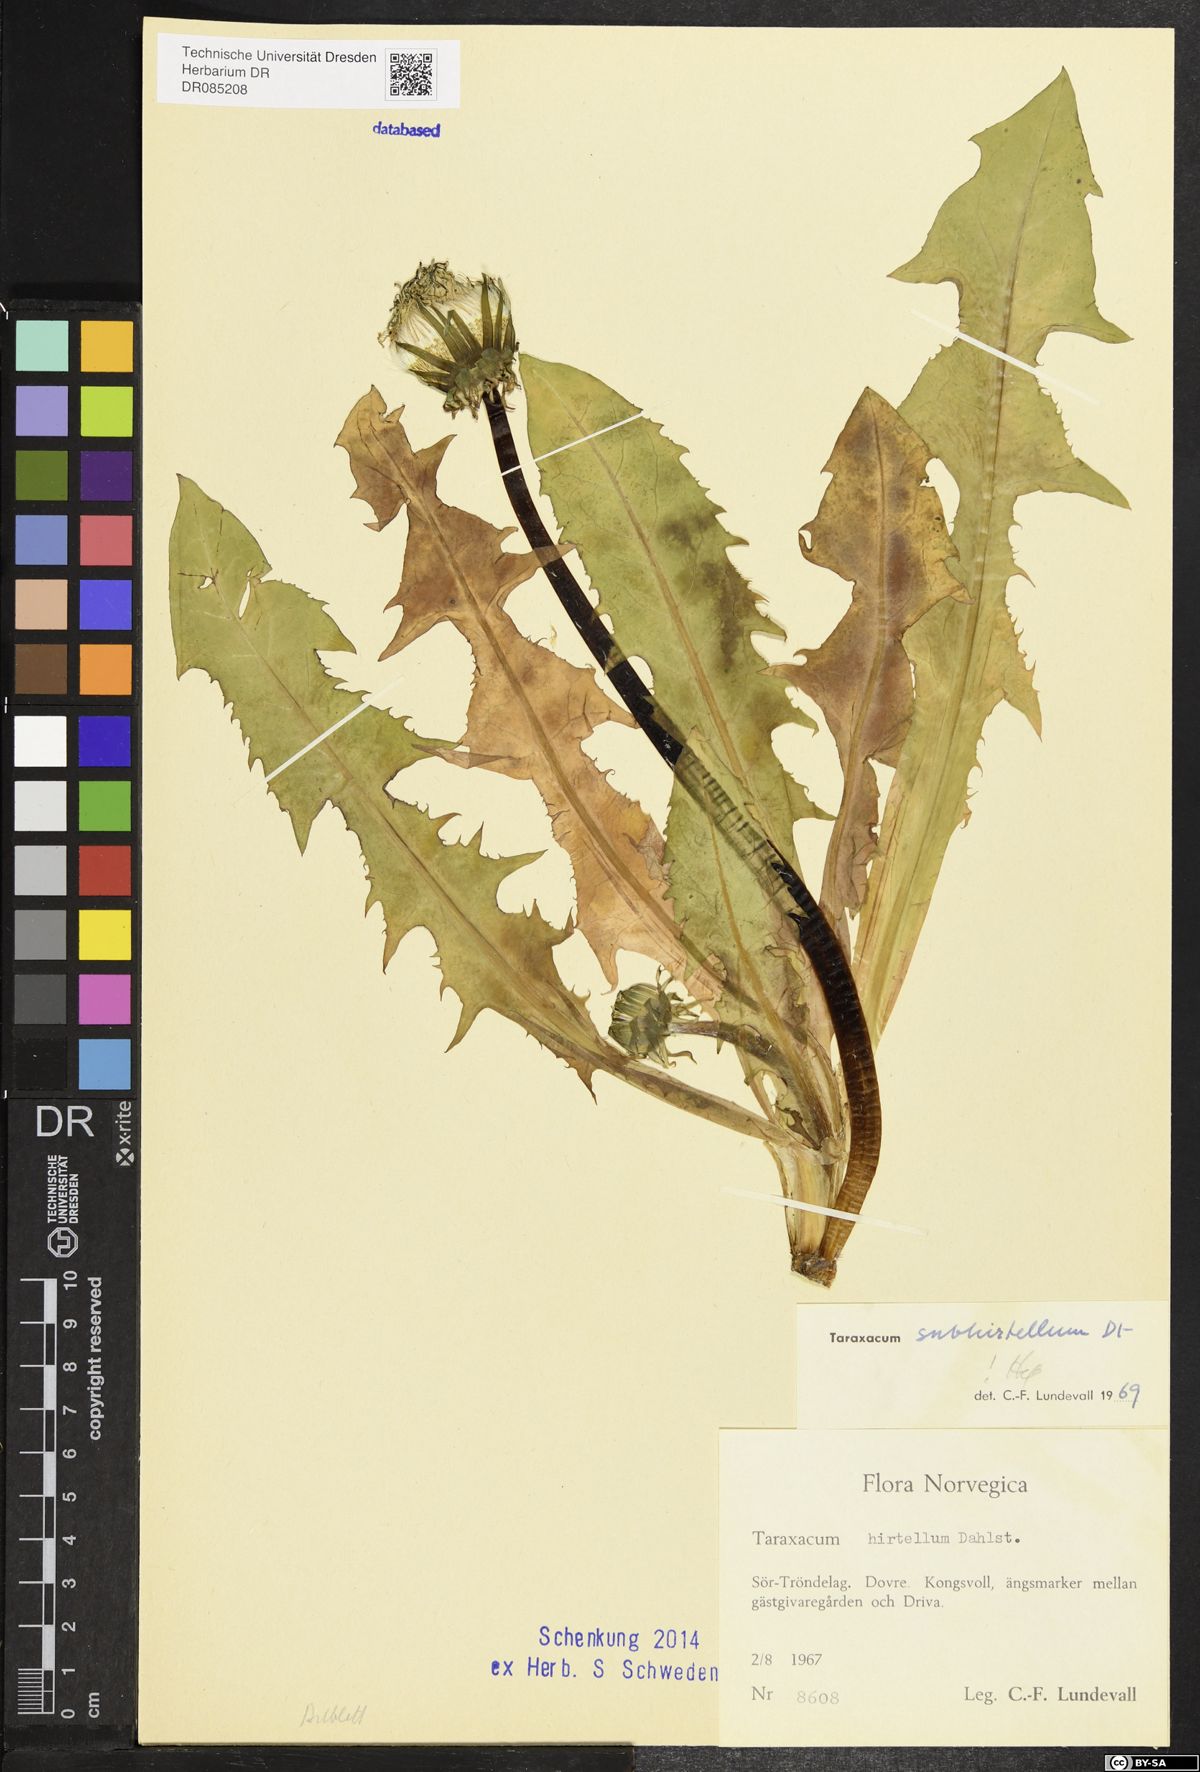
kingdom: Plantae
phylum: Tracheophyta
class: Magnoliopsida
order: Asterales
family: Asteraceae
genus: Taraxacum
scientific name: Taraxacum subhirtellum
